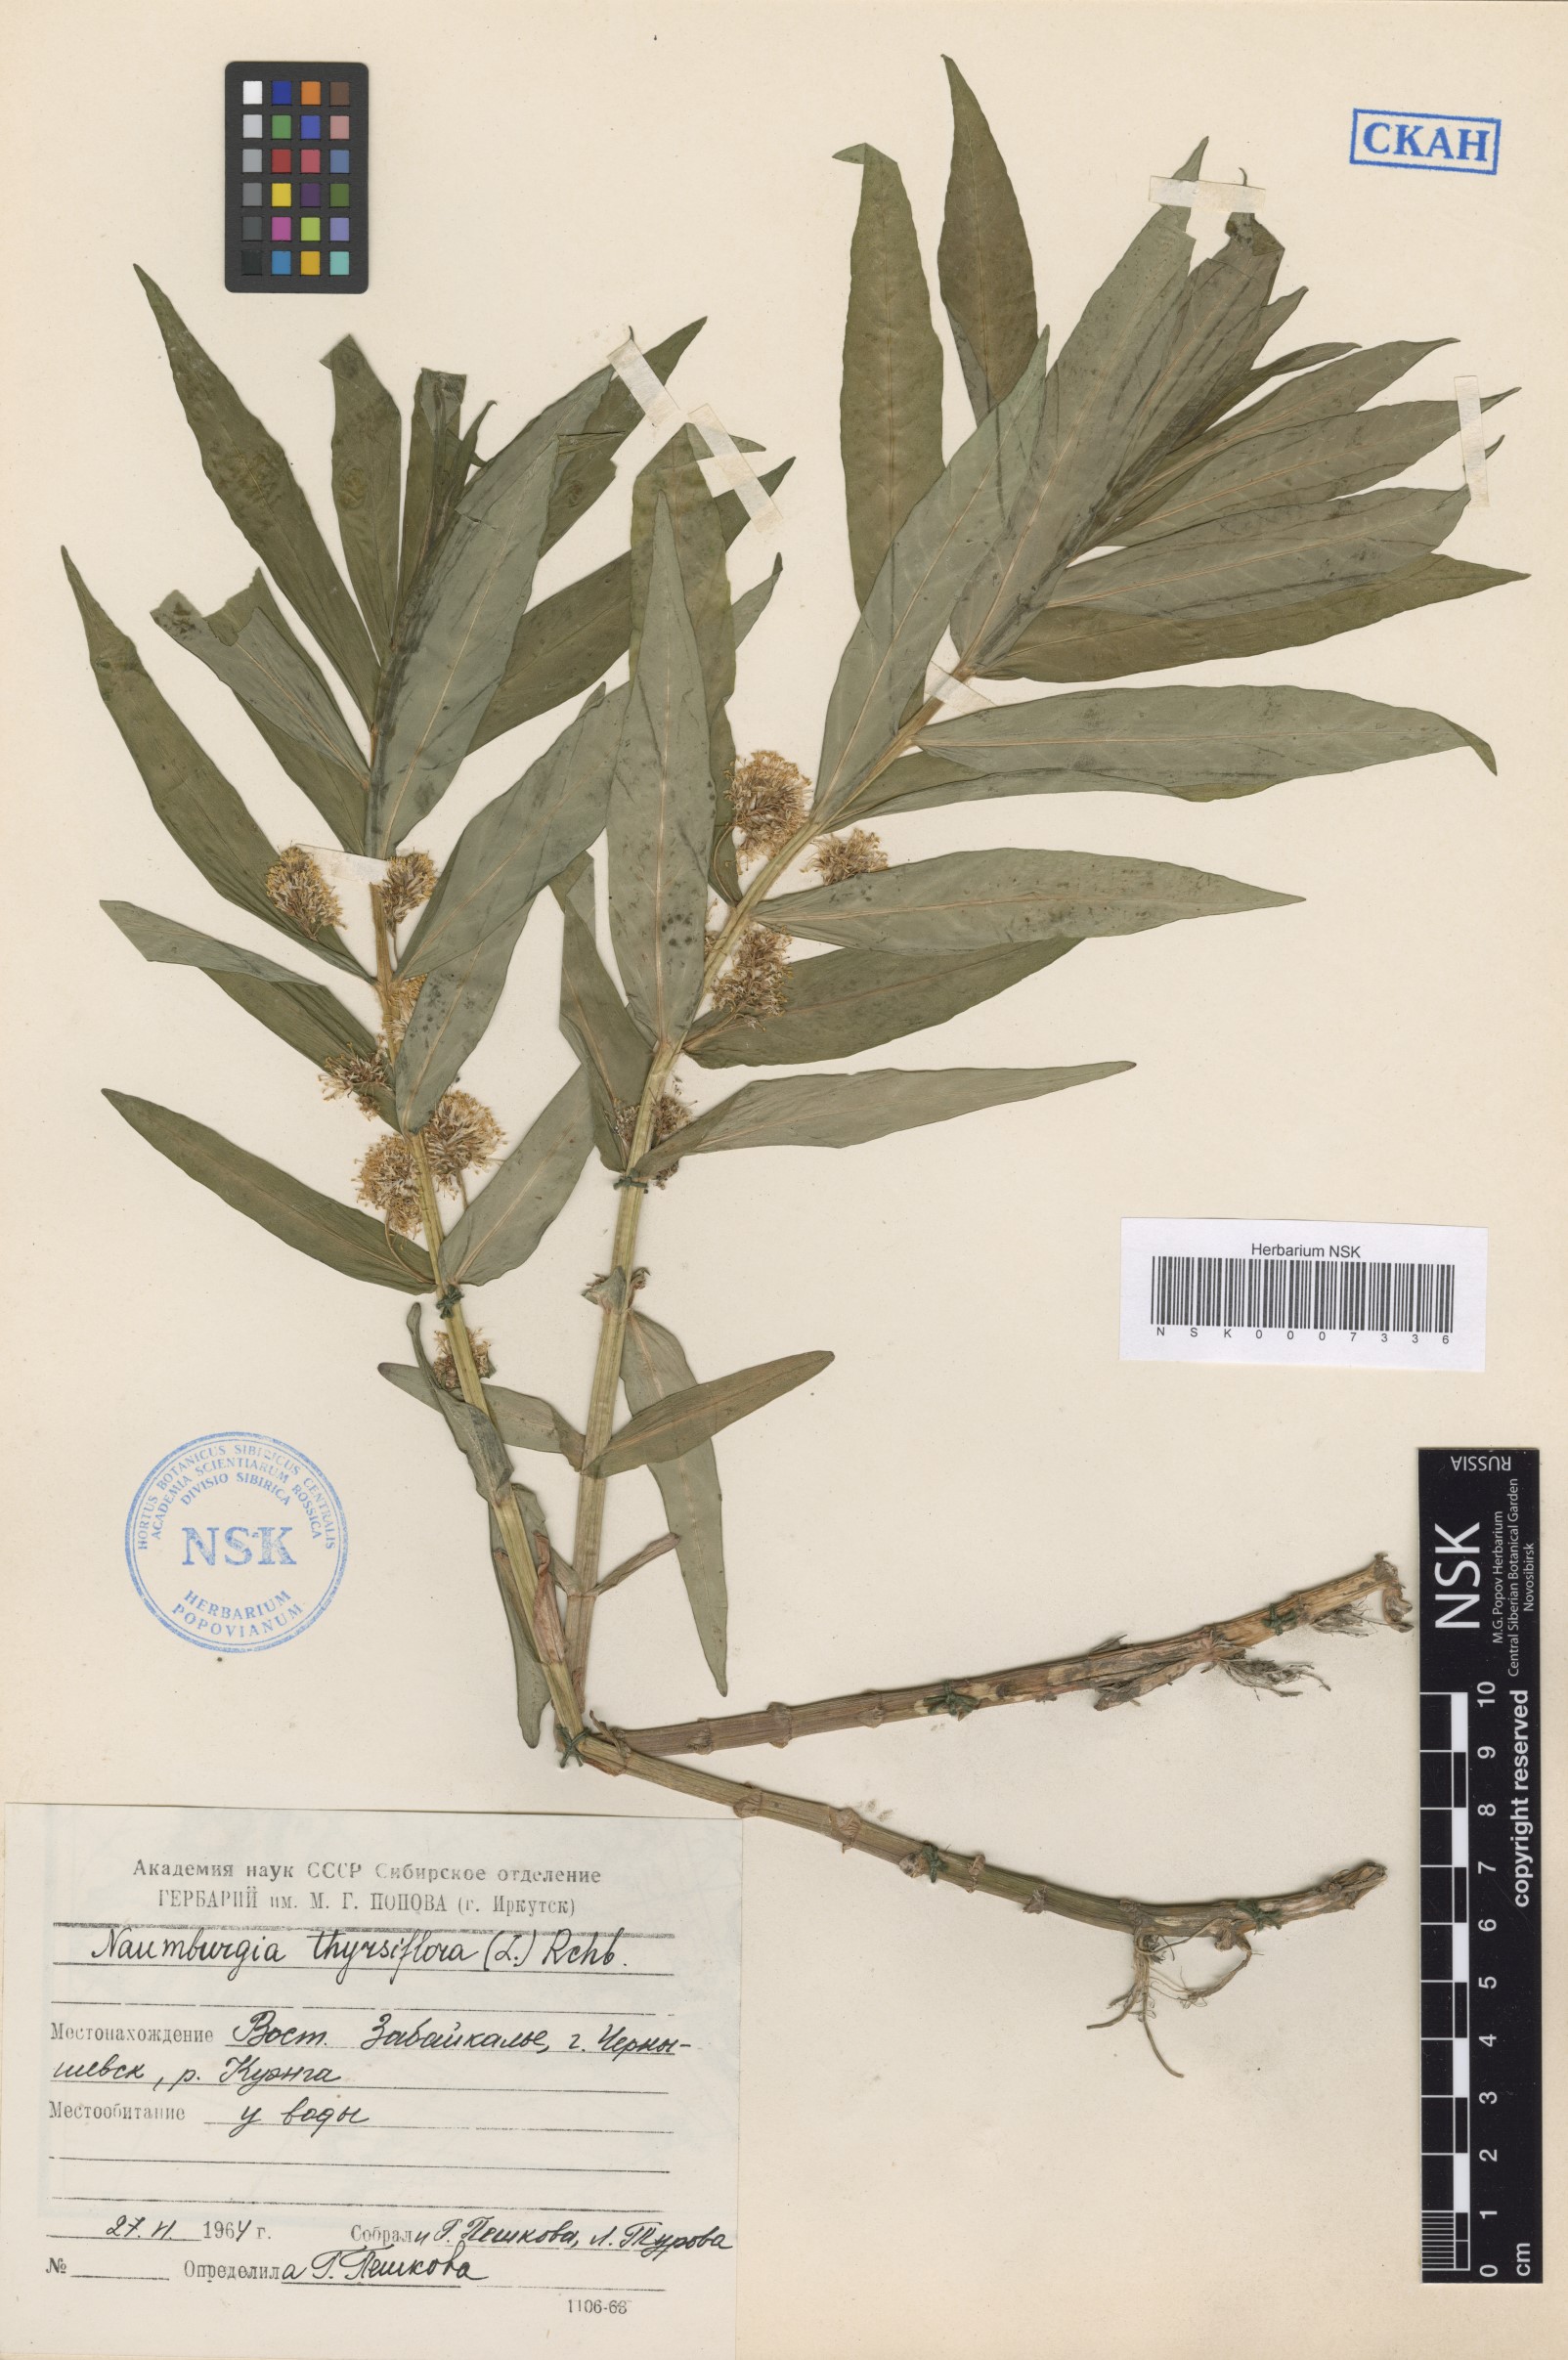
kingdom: Plantae
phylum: Tracheophyta
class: Magnoliopsida
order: Ericales
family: Primulaceae
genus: Lysimachia
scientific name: Lysimachia thyrsiflora
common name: Tufted loosestrife
